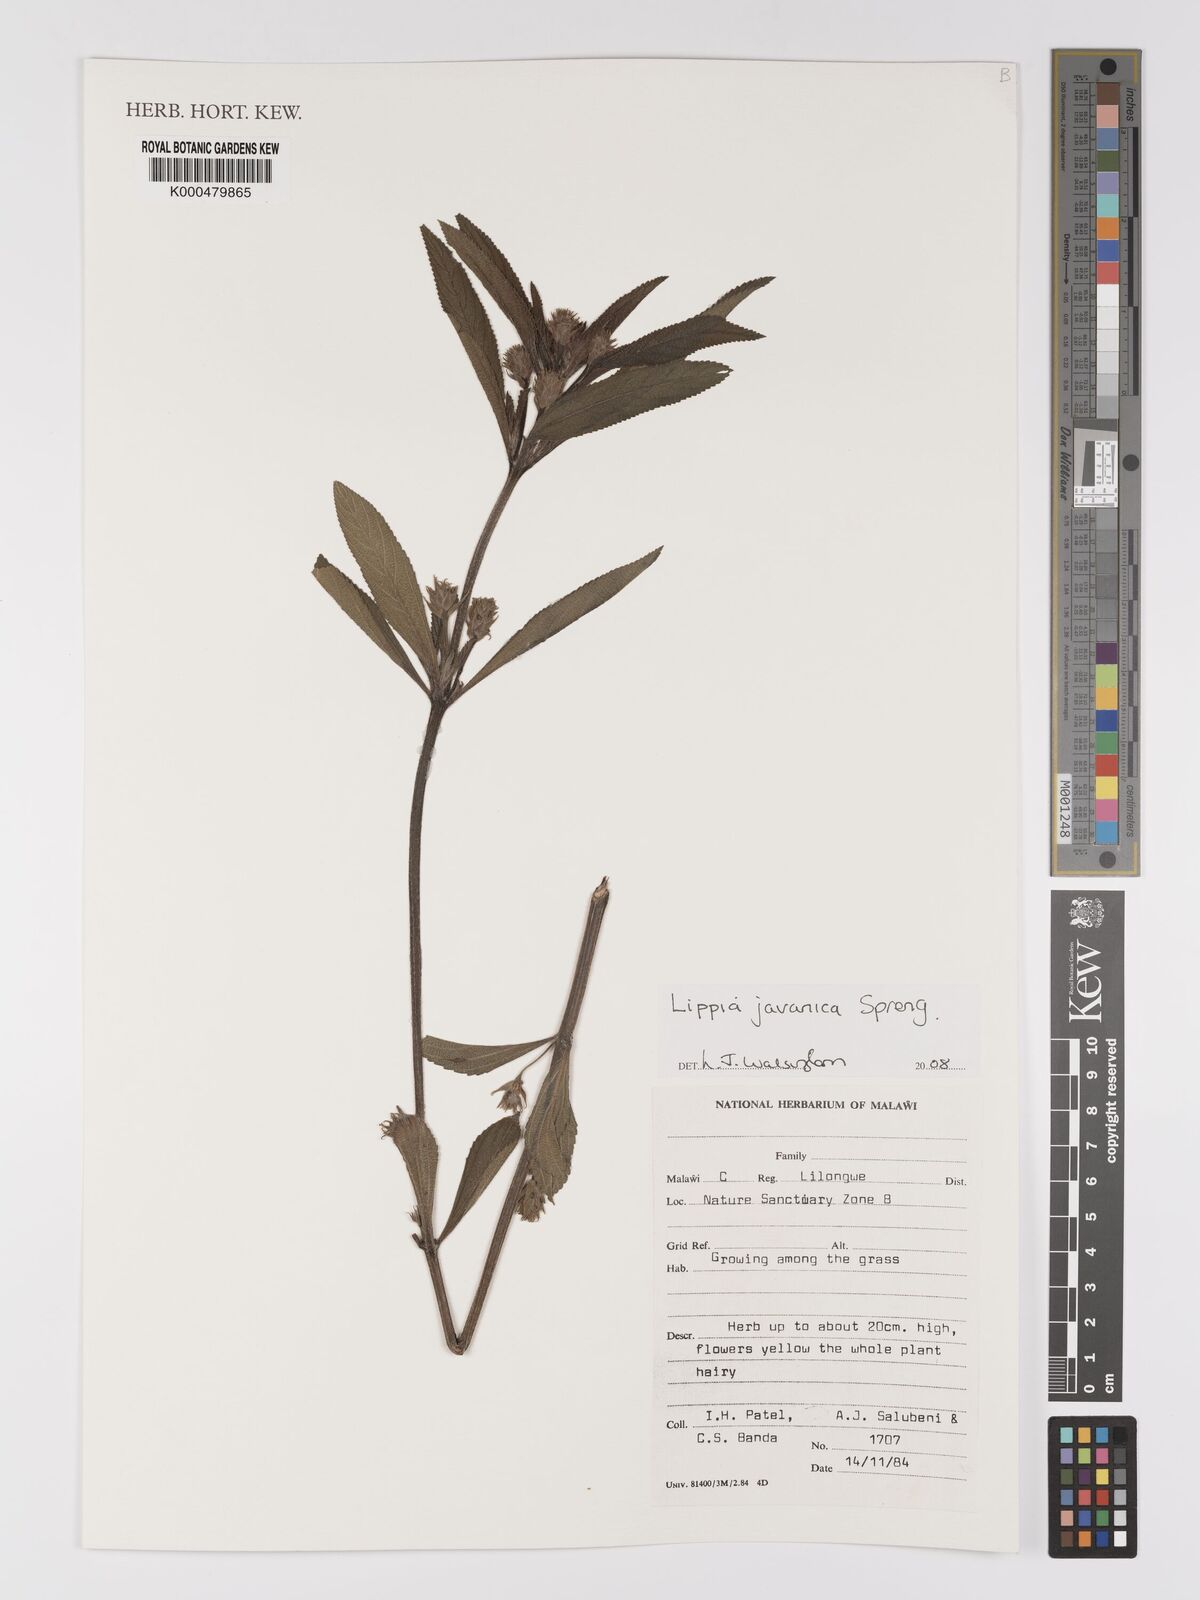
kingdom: Plantae
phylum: Tracheophyta
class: Magnoliopsida
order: Lamiales
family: Verbenaceae
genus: Lippia
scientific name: Lippia javanica
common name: Lemonbush
